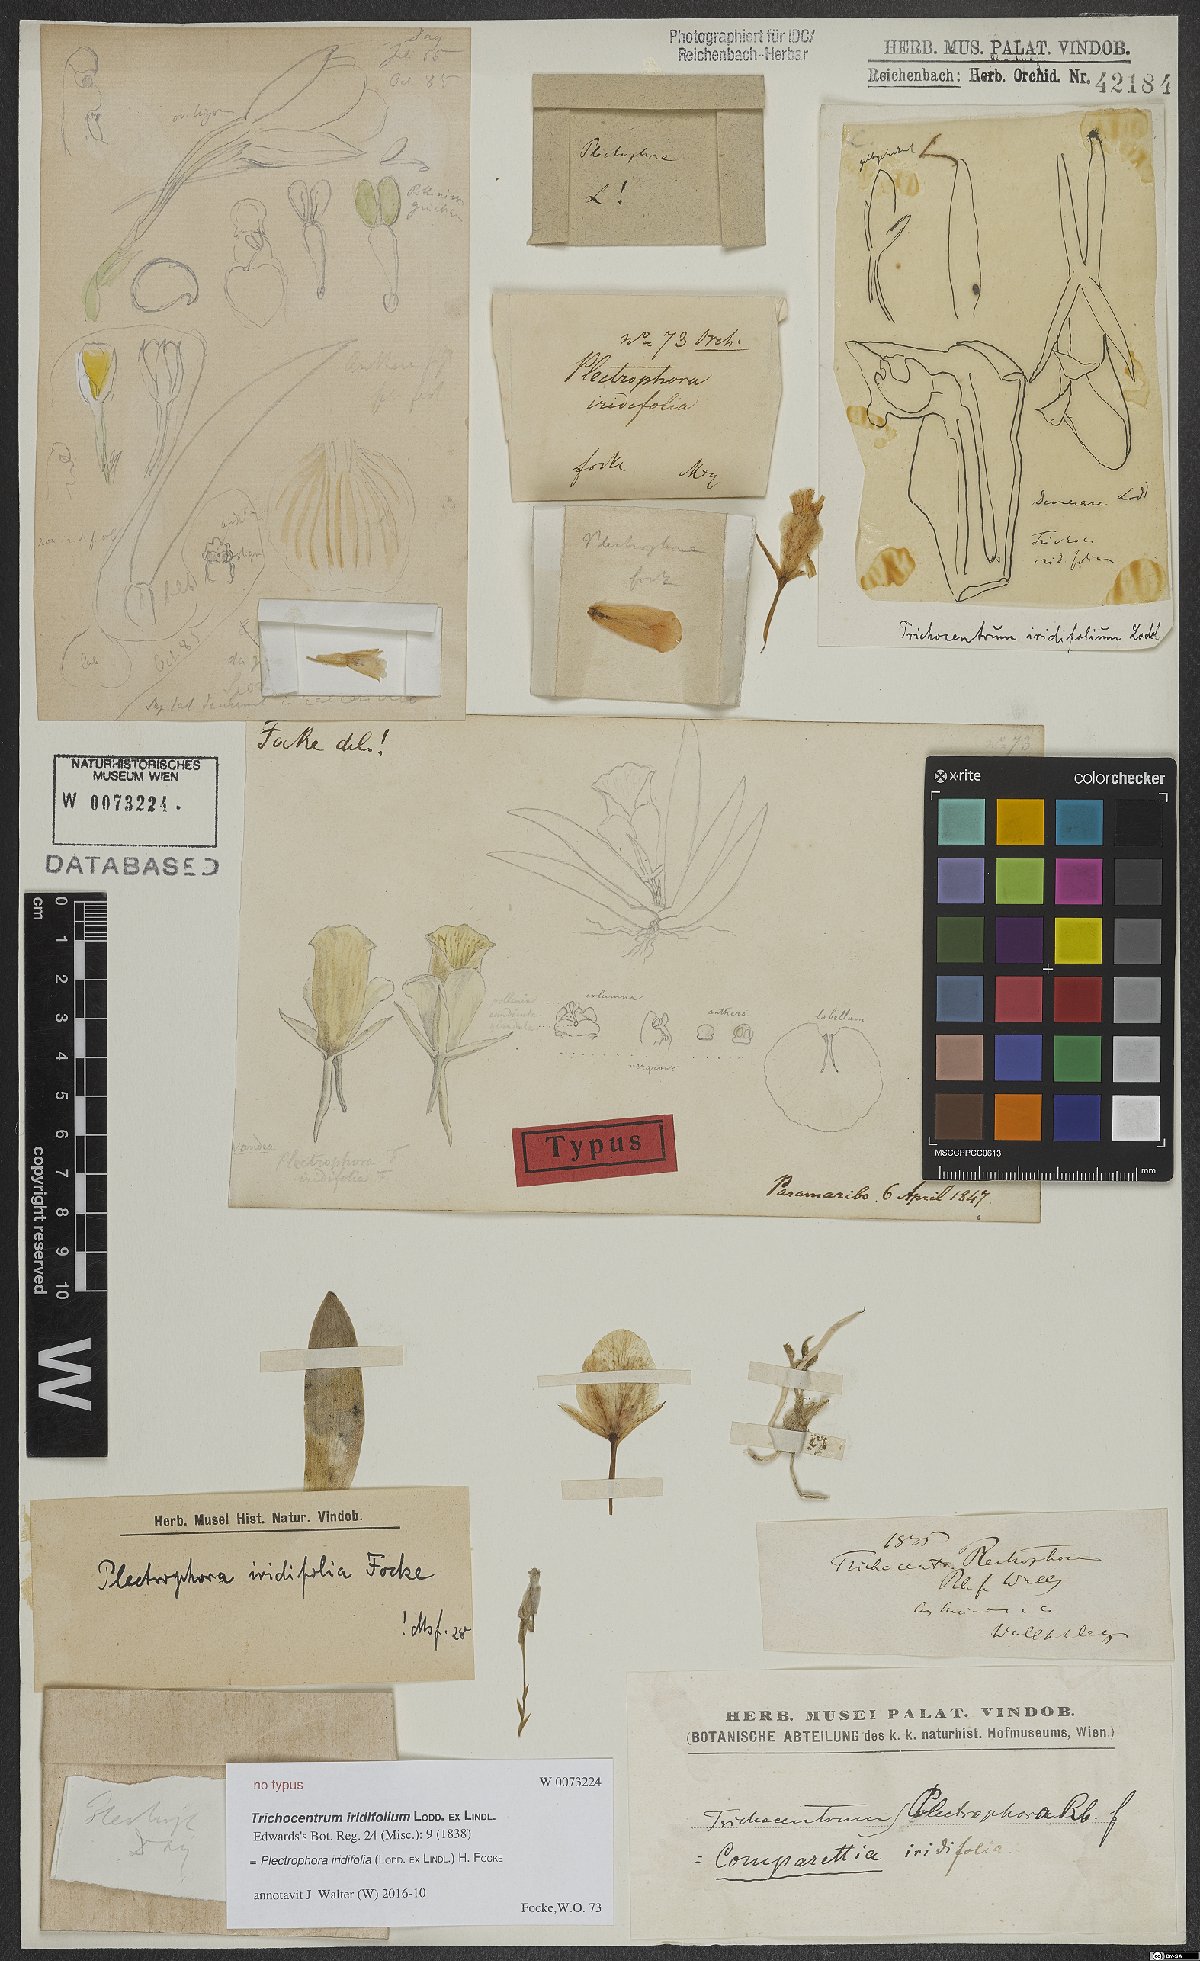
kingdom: Plantae
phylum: Tracheophyta
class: Liliopsida
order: Asparagales
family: Orchidaceae
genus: Plectrophora
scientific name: Plectrophora iridifolia
